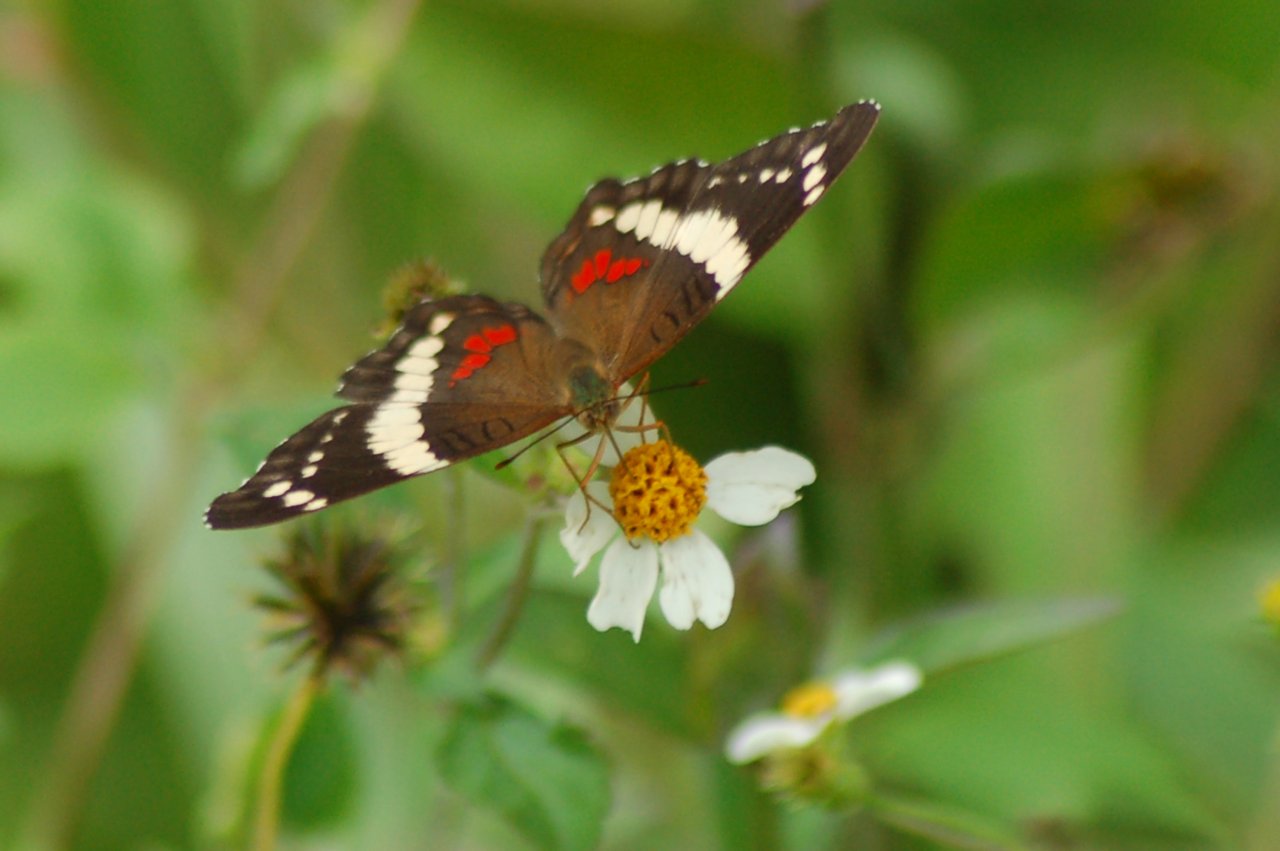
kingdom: Animalia
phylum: Arthropoda
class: Insecta
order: Lepidoptera
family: Nymphalidae
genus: Anartia
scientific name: Anartia fatima
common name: Banded Peacock
